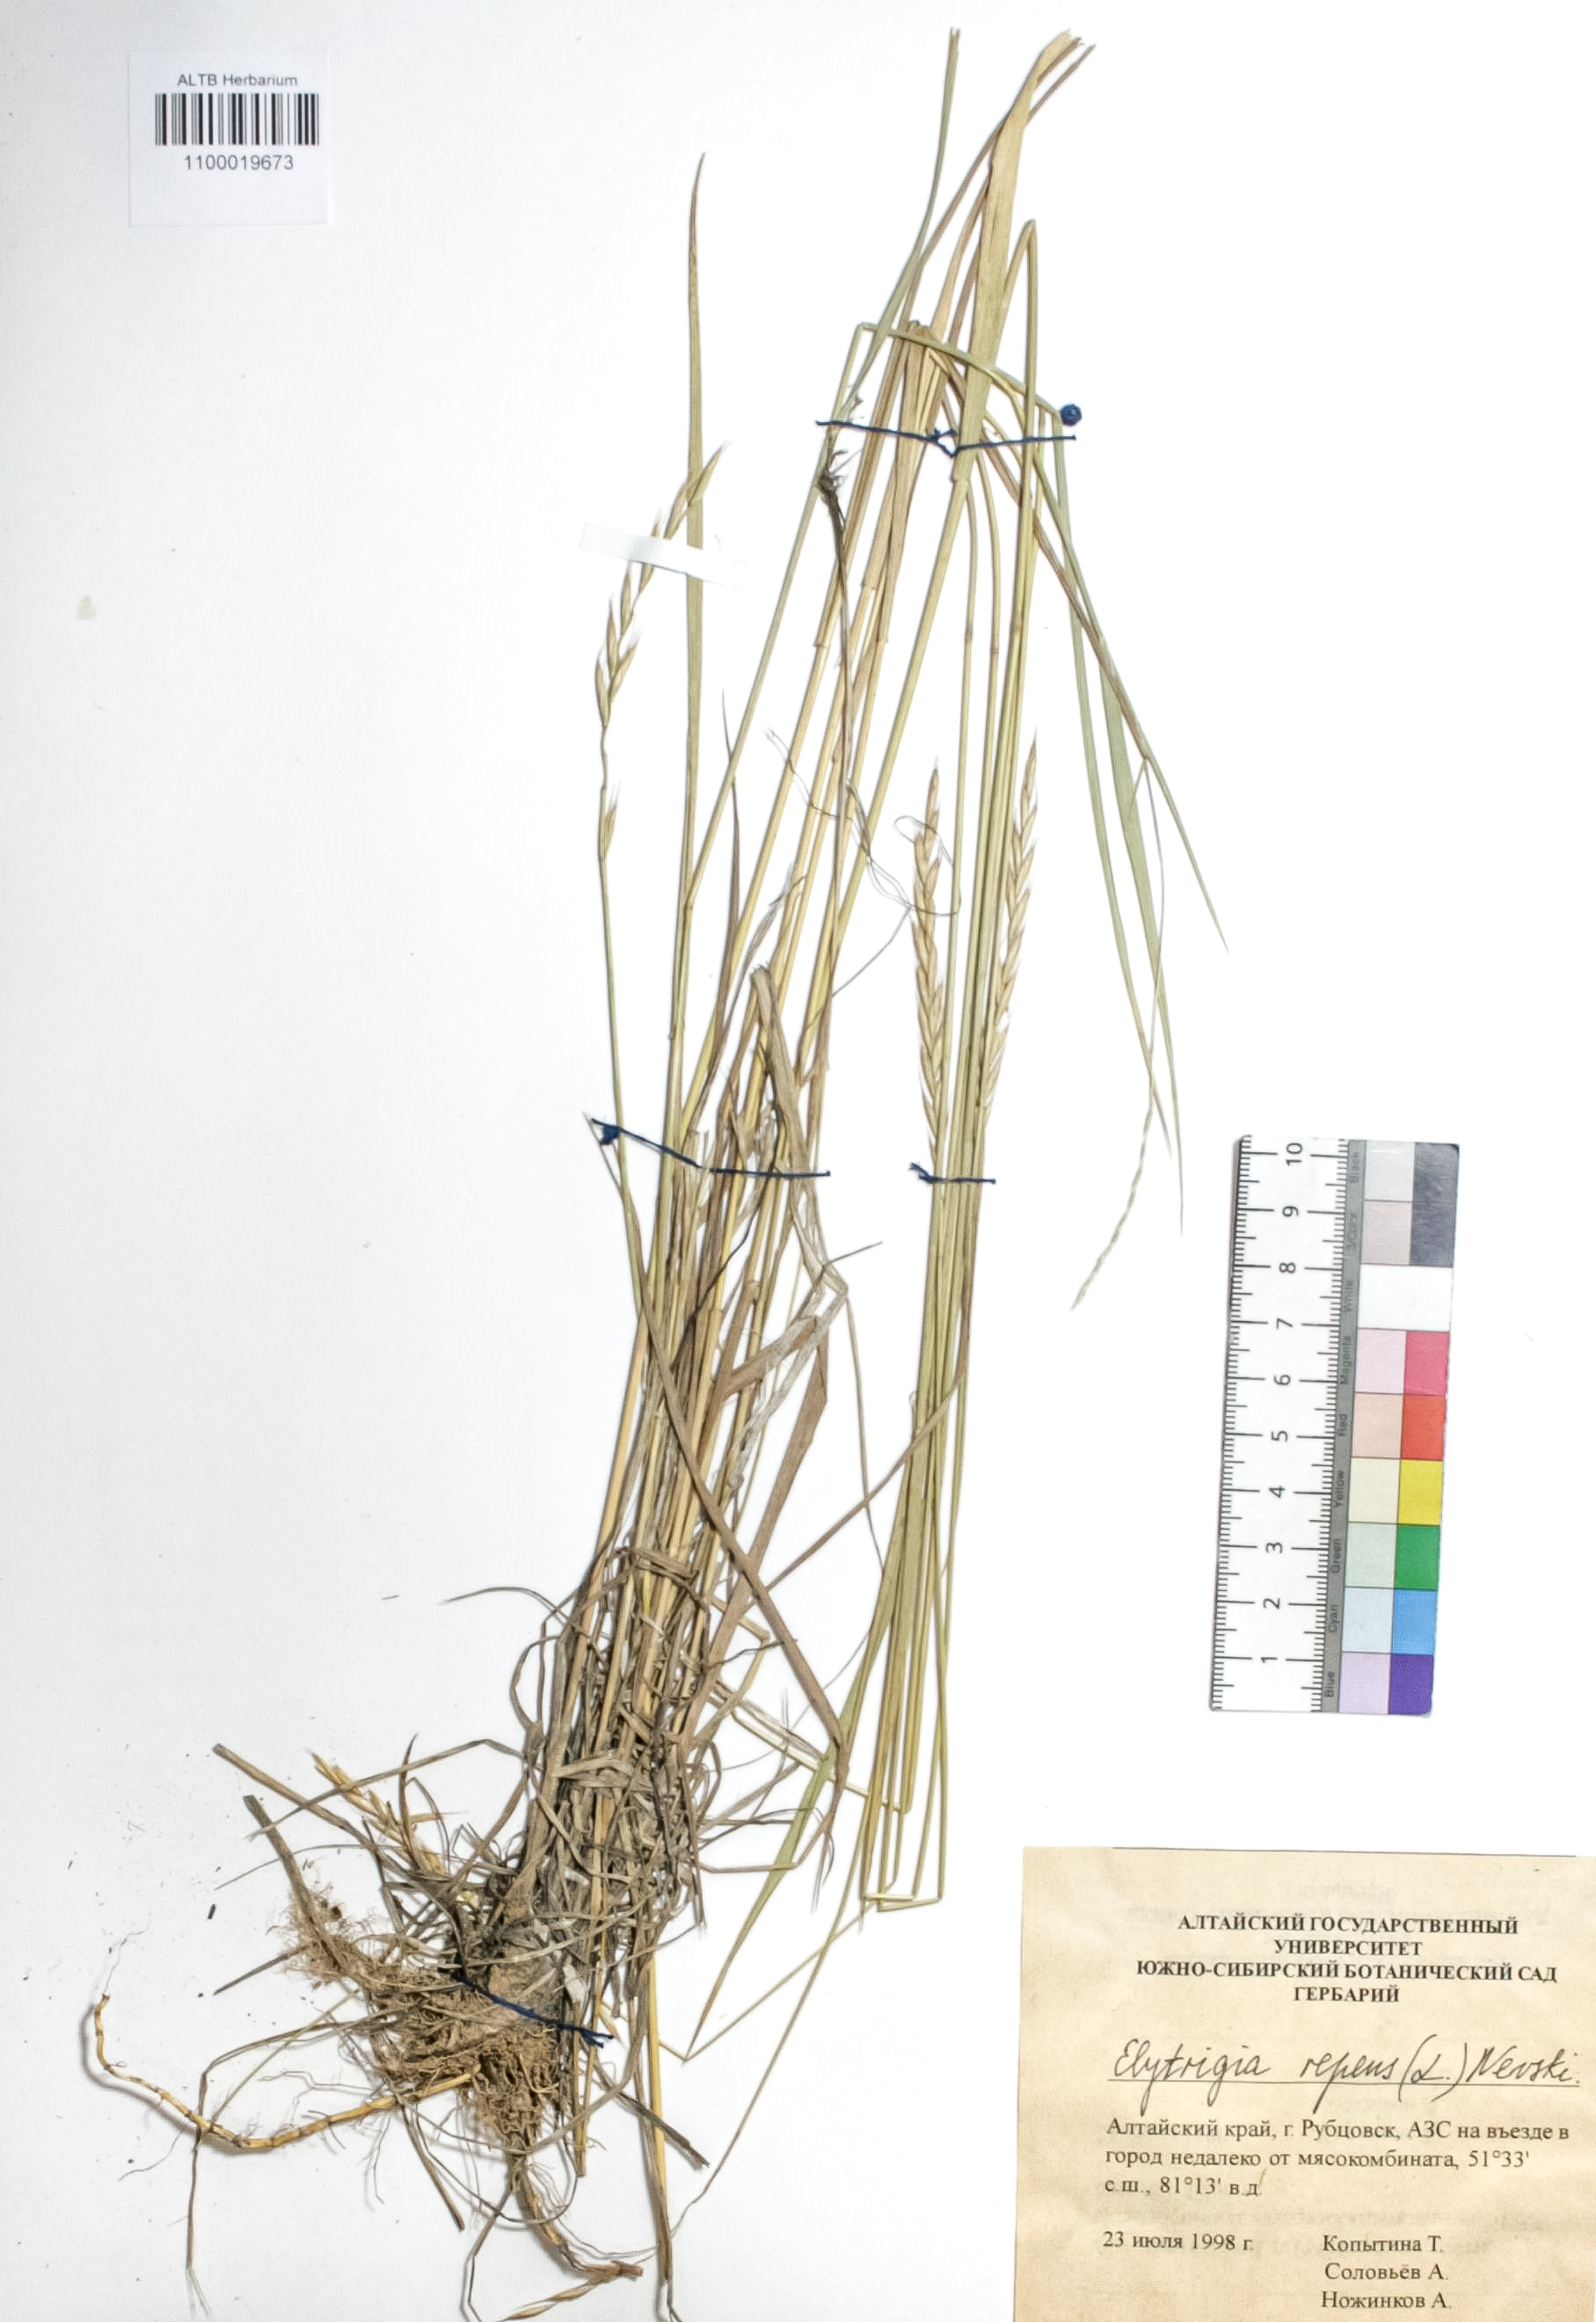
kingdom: Plantae
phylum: Tracheophyta
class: Liliopsida
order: Poales
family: Poaceae
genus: Elymus
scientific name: Elymus repens
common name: Quackgrass
